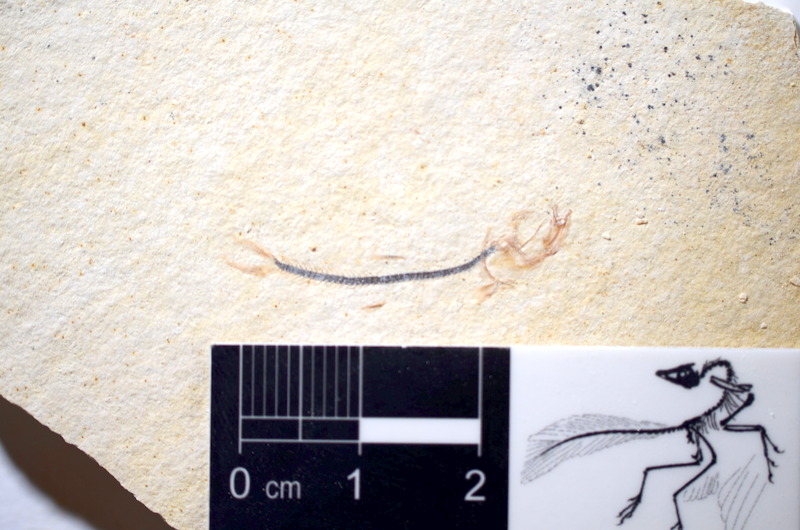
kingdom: Animalia
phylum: Chordata
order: Salmoniformes
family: Orthogonikleithridae
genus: Orthogonikleithrus
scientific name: Orthogonikleithrus hoelli
